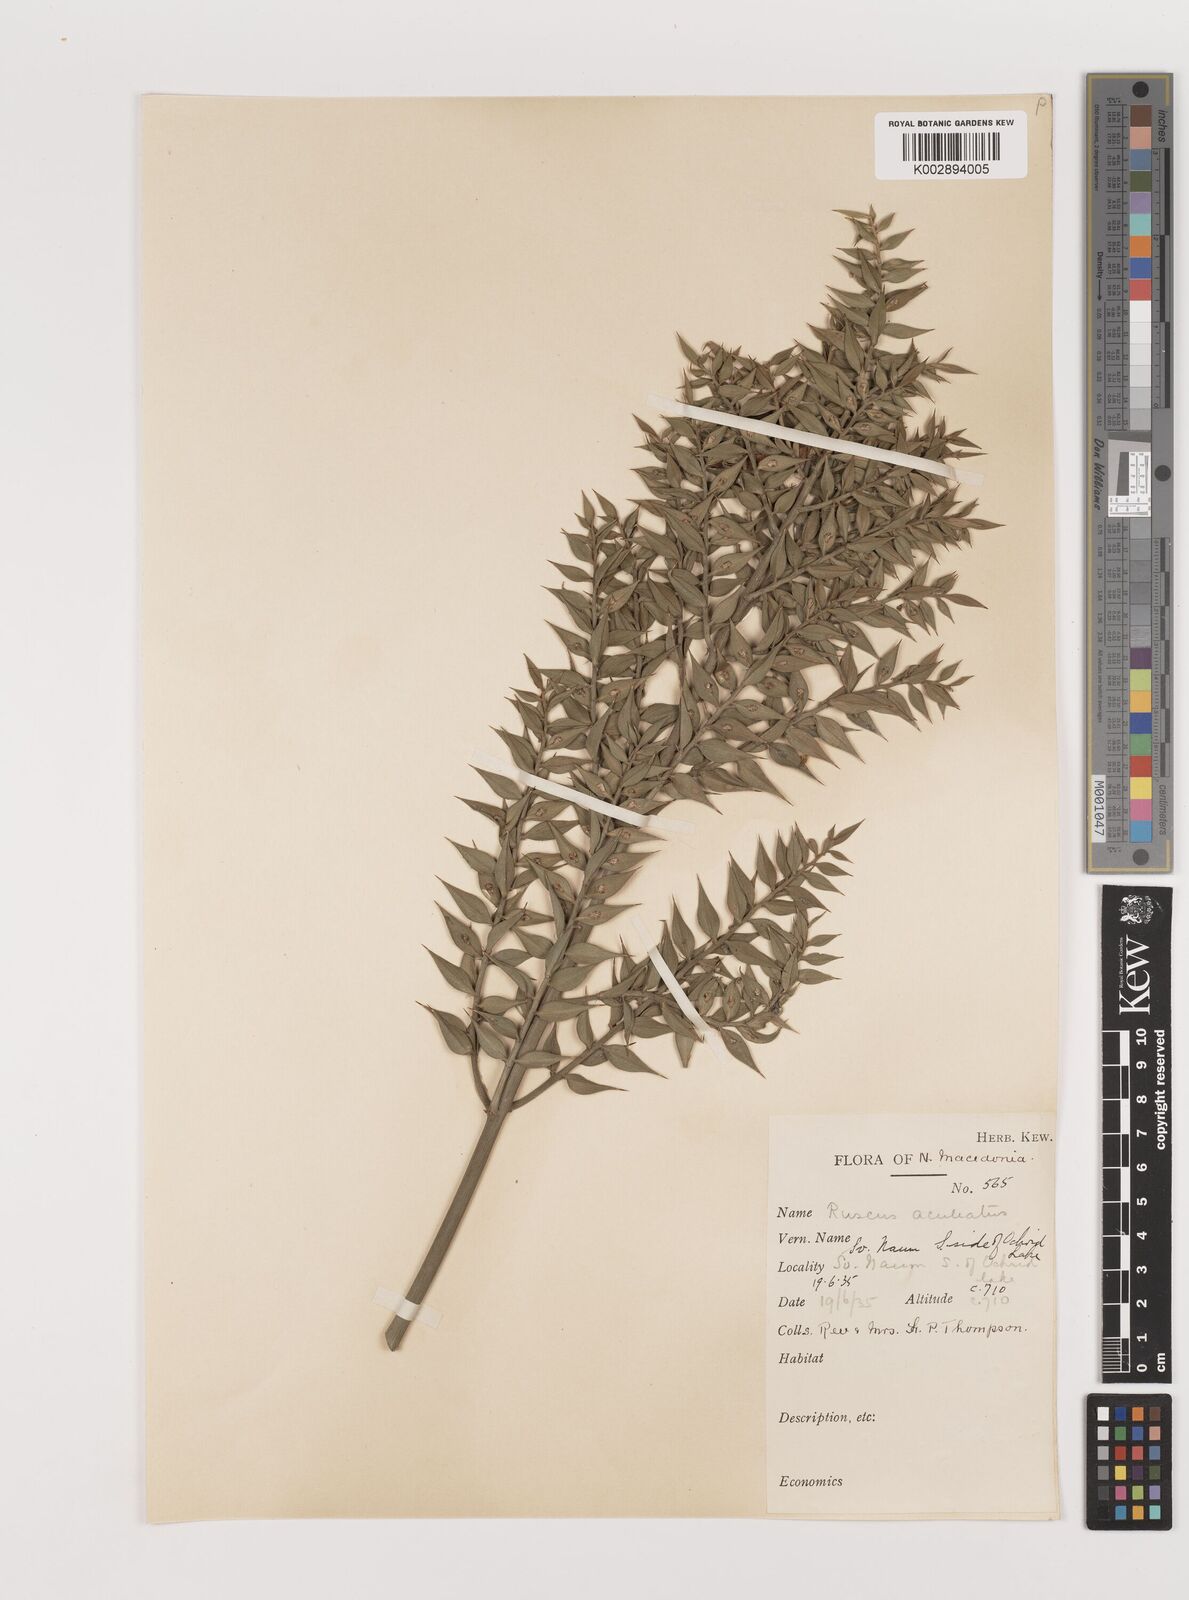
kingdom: Plantae
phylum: Tracheophyta
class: Liliopsida
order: Asparagales
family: Asparagaceae
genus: Ruscus
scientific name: Ruscus aculeatus
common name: Butcher's-broom
